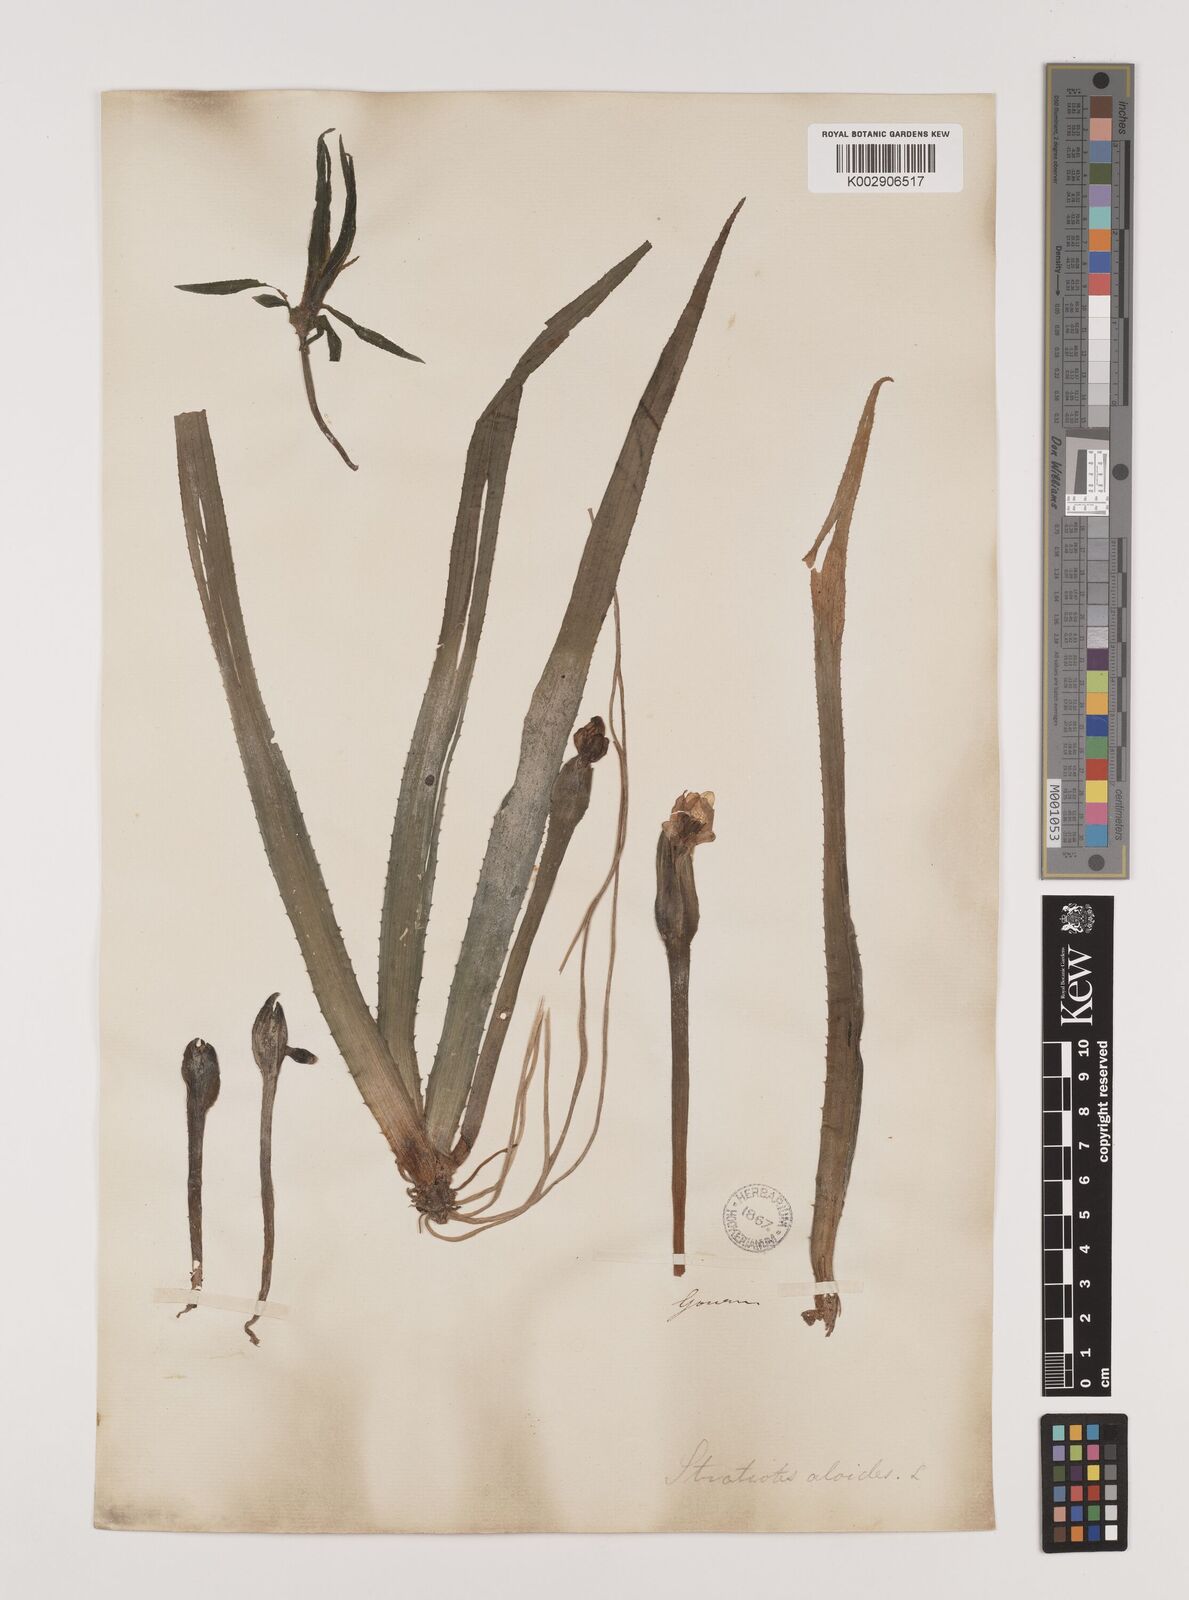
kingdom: Plantae
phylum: Tracheophyta
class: Liliopsida
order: Alismatales
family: Hydrocharitaceae
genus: Stratiotes
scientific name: Stratiotes aloides
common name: Water-soldier
